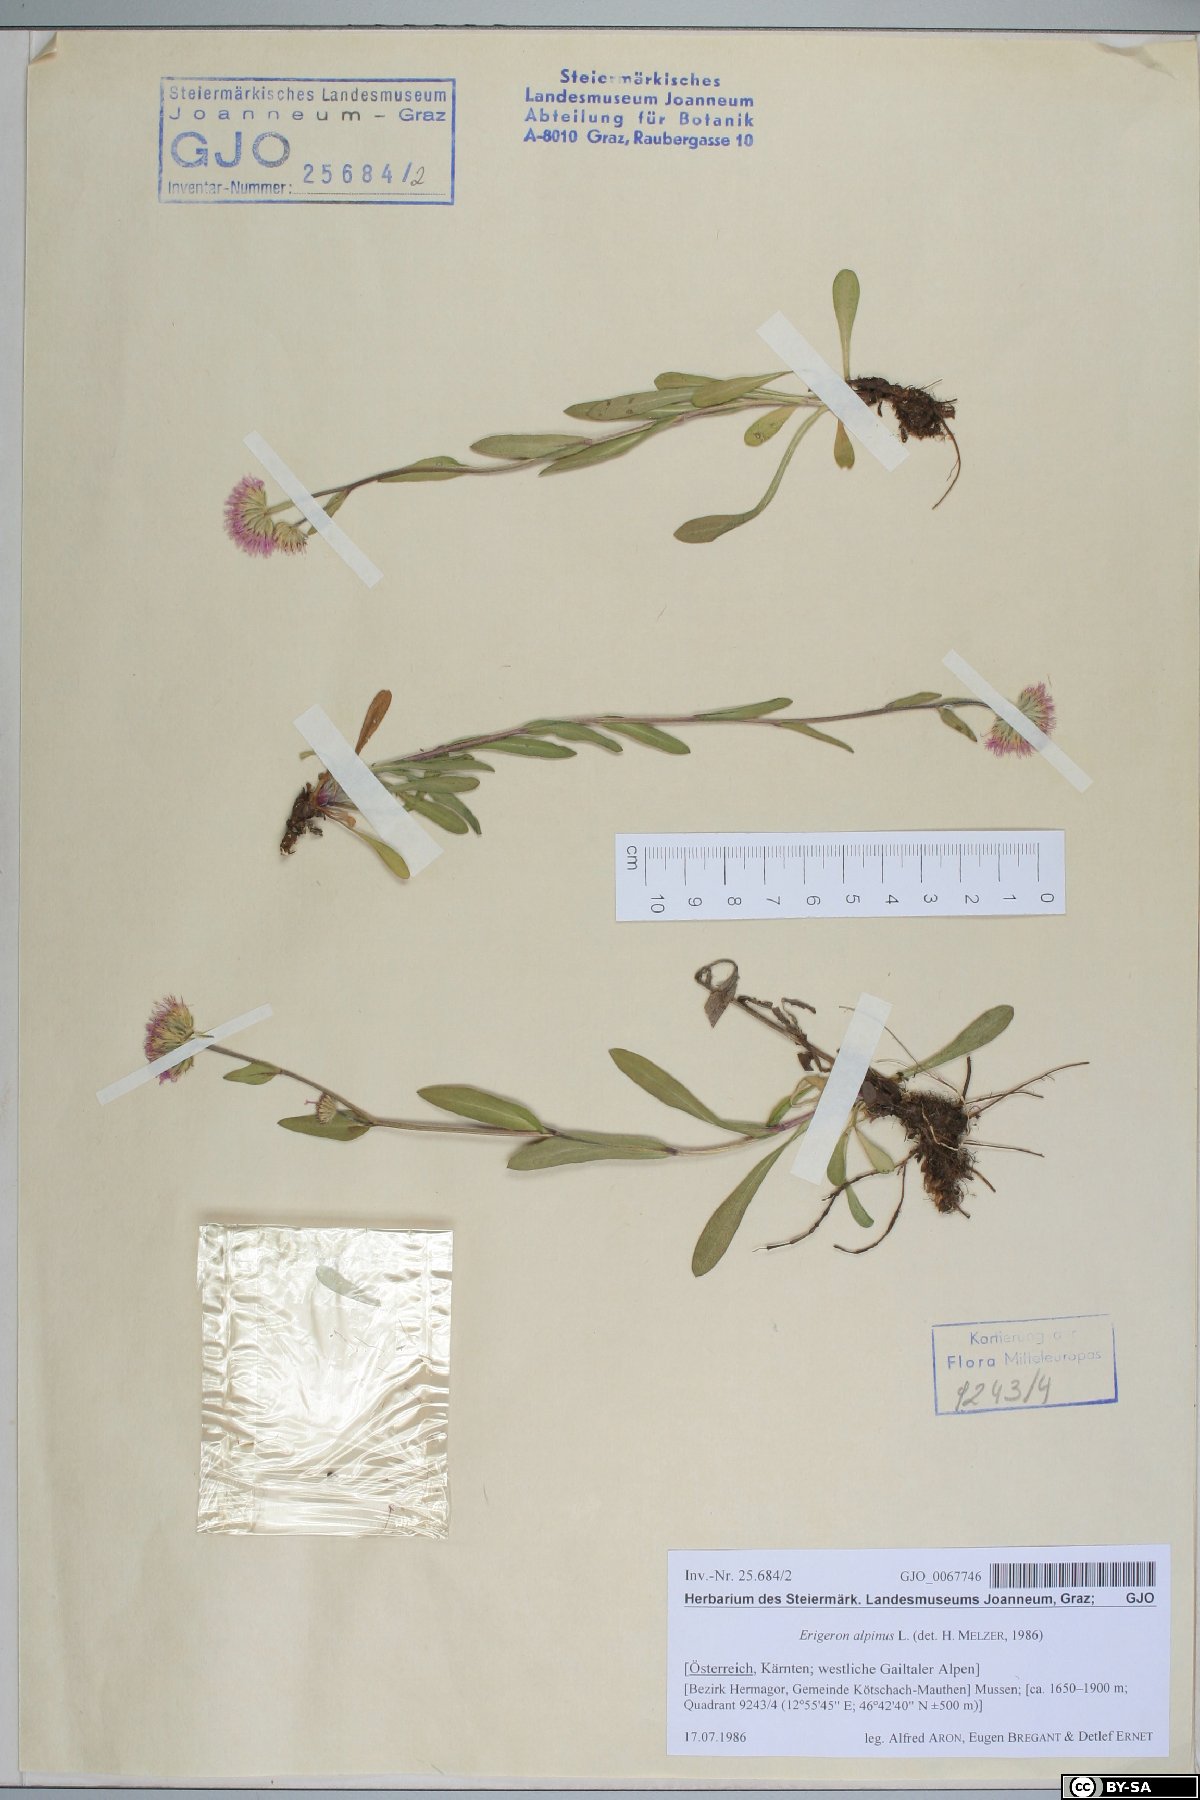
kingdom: Plantae
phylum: Tracheophyta
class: Magnoliopsida
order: Asterales
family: Asteraceae
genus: Erigeron
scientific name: Erigeron alpinus
